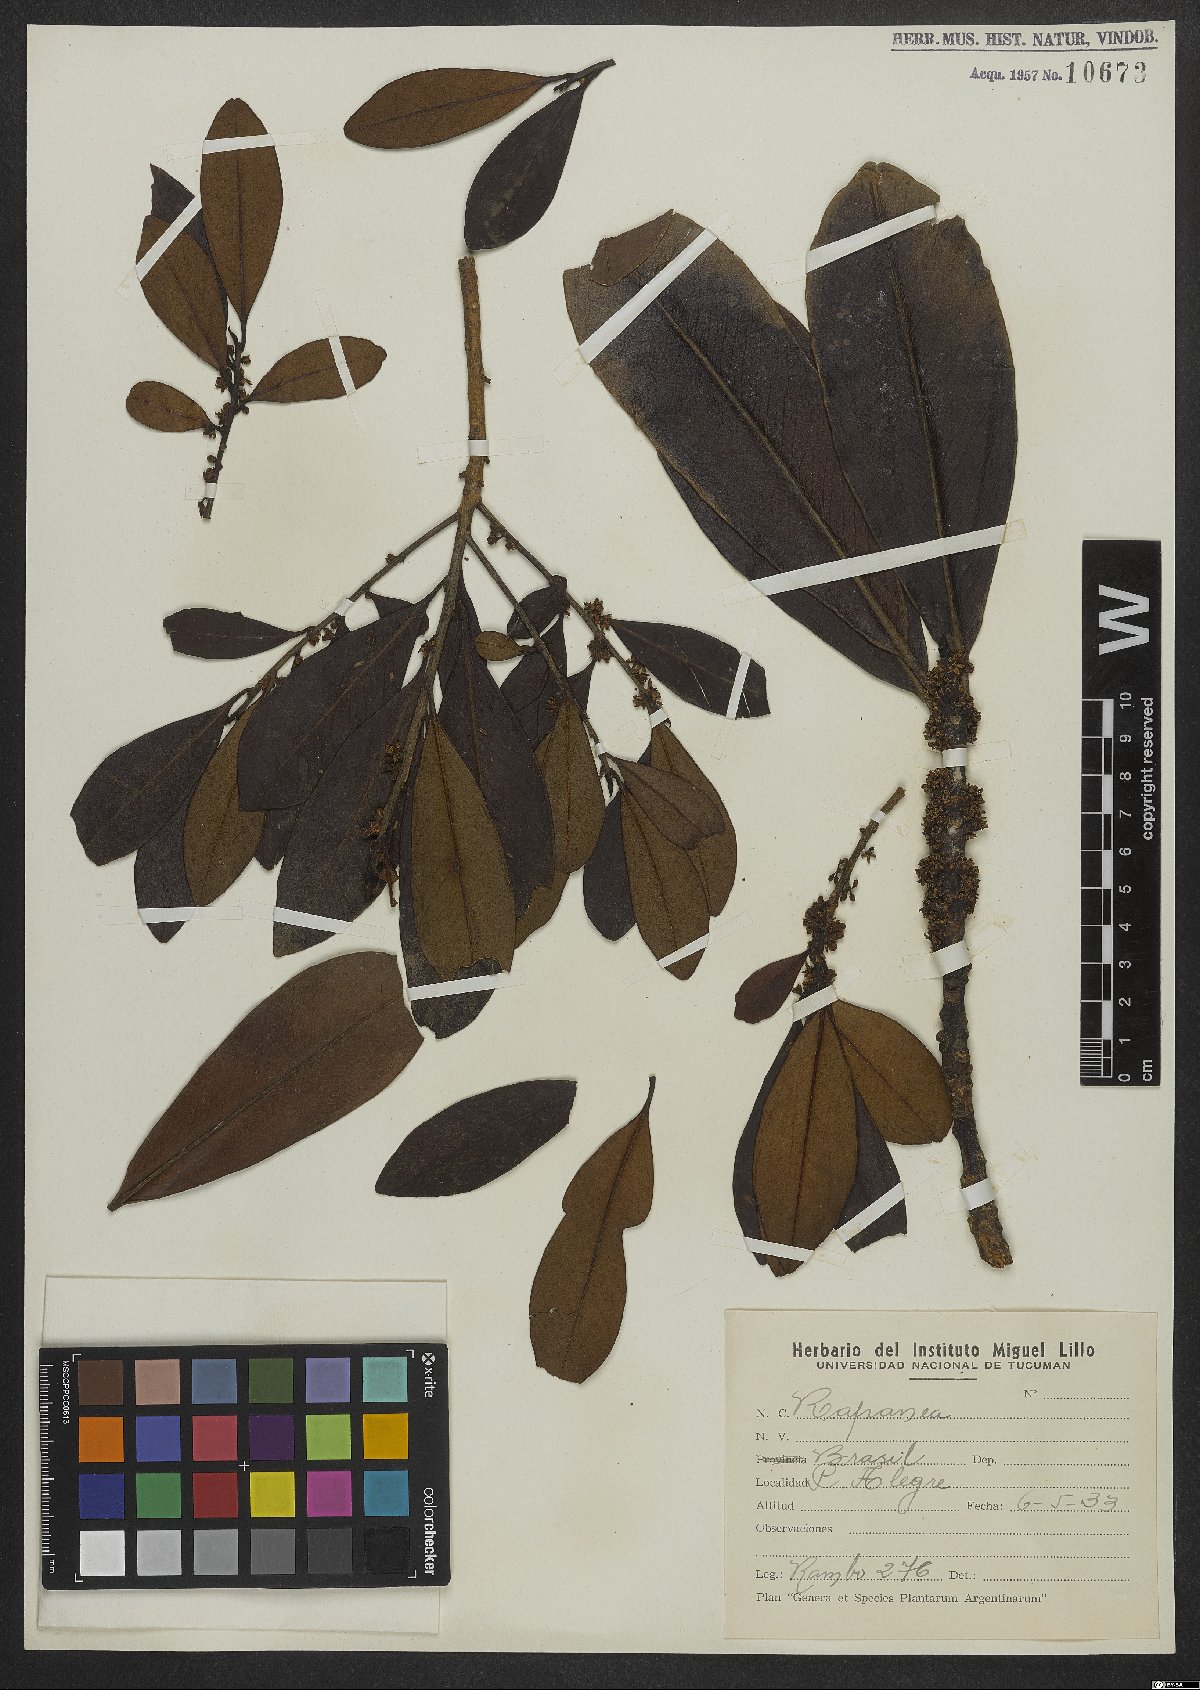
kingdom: Plantae
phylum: Tracheophyta
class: Magnoliopsida
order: Ericales
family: Primulaceae
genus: Myrsine
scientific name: Myrsine
